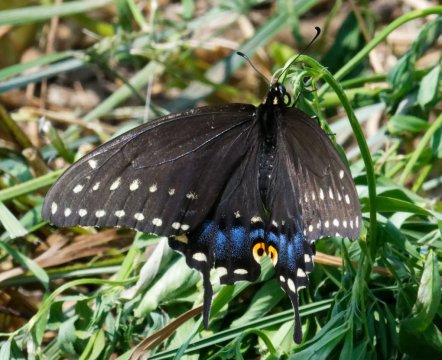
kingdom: Animalia
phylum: Arthropoda
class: Insecta
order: Lepidoptera
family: Papilionidae
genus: Papilio
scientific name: Papilio polyxenes
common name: Black Swallowtail
